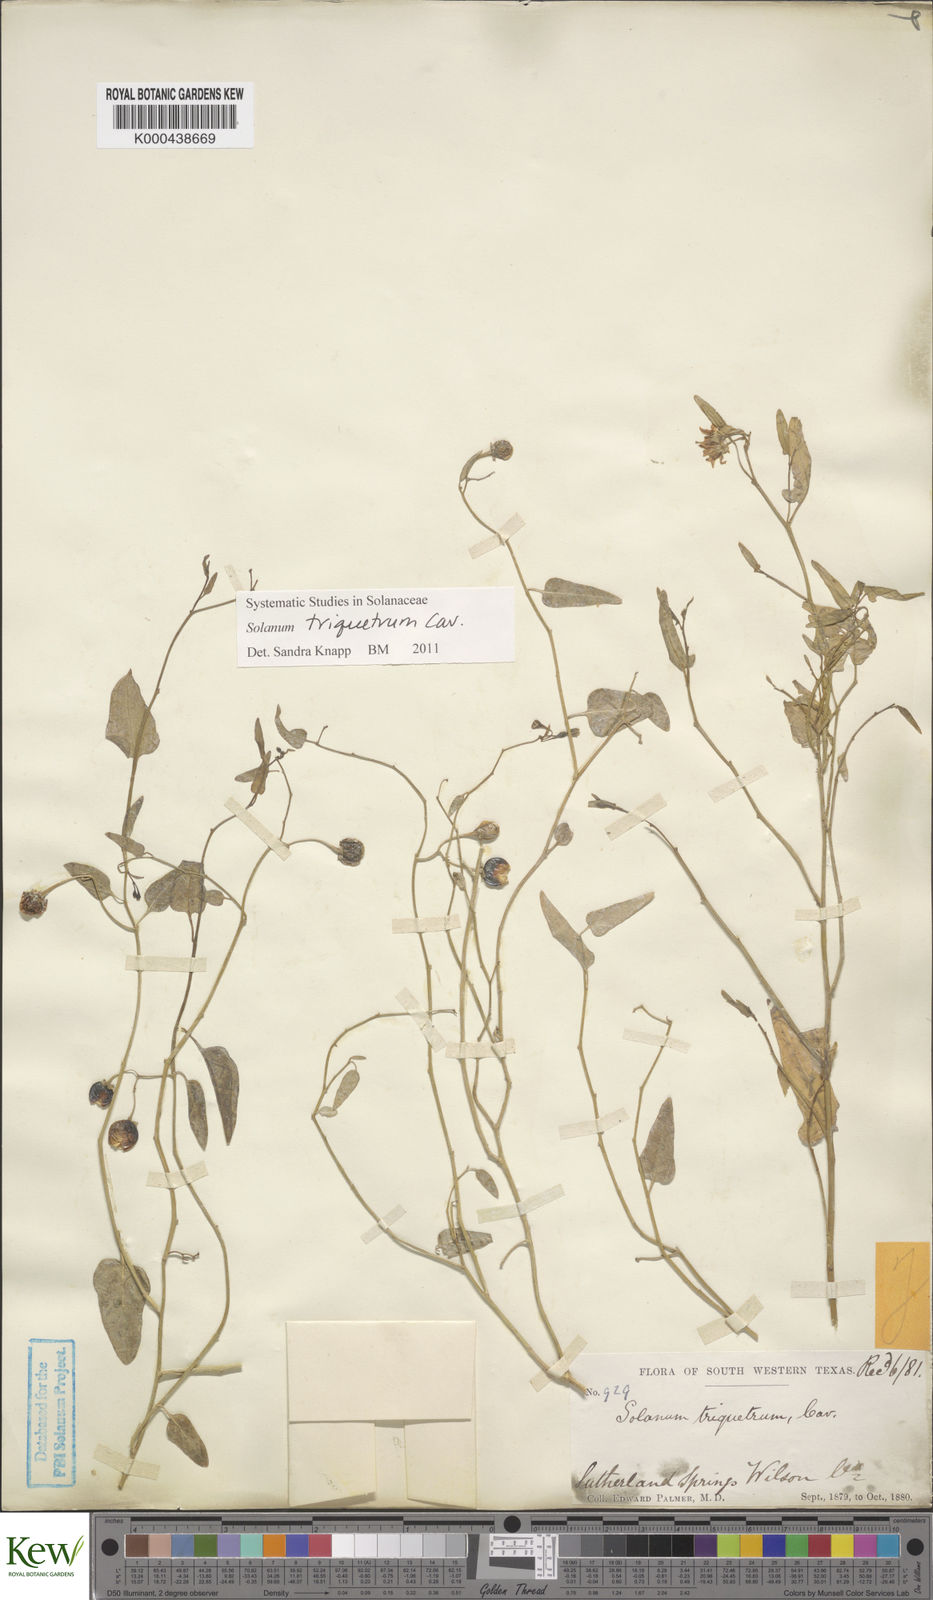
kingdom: Plantae
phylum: Tracheophyta
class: Magnoliopsida
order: Solanales
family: Solanaceae
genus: Solanum
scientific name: Solanum triquetrum
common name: Texas nightshade
